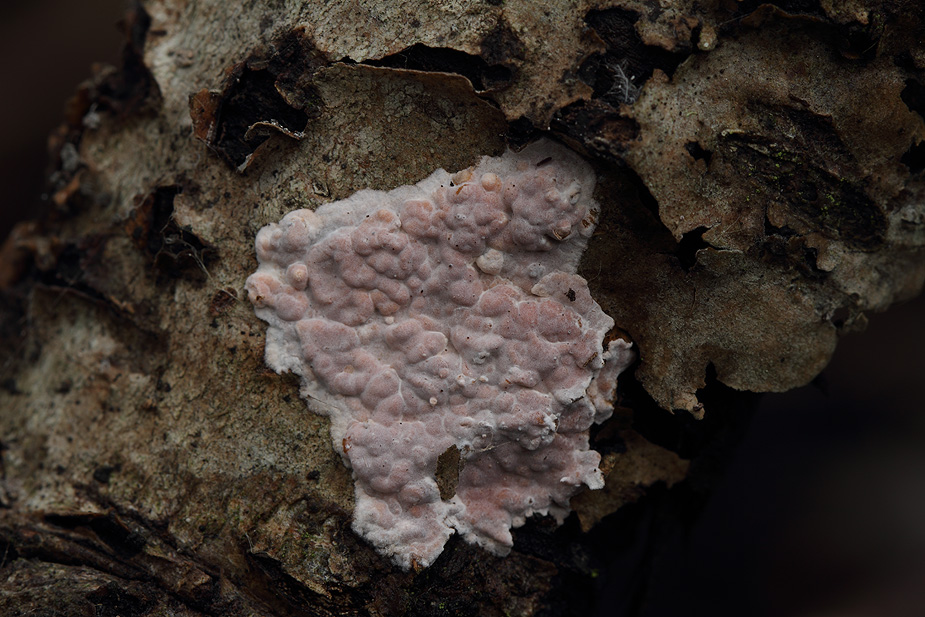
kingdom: Fungi
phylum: Basidiomycota
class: Agaricomycetes
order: Russulales
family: Peniophoraceae
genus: Peniophora
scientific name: Peniophora polygonia
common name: polygon-voksskind
